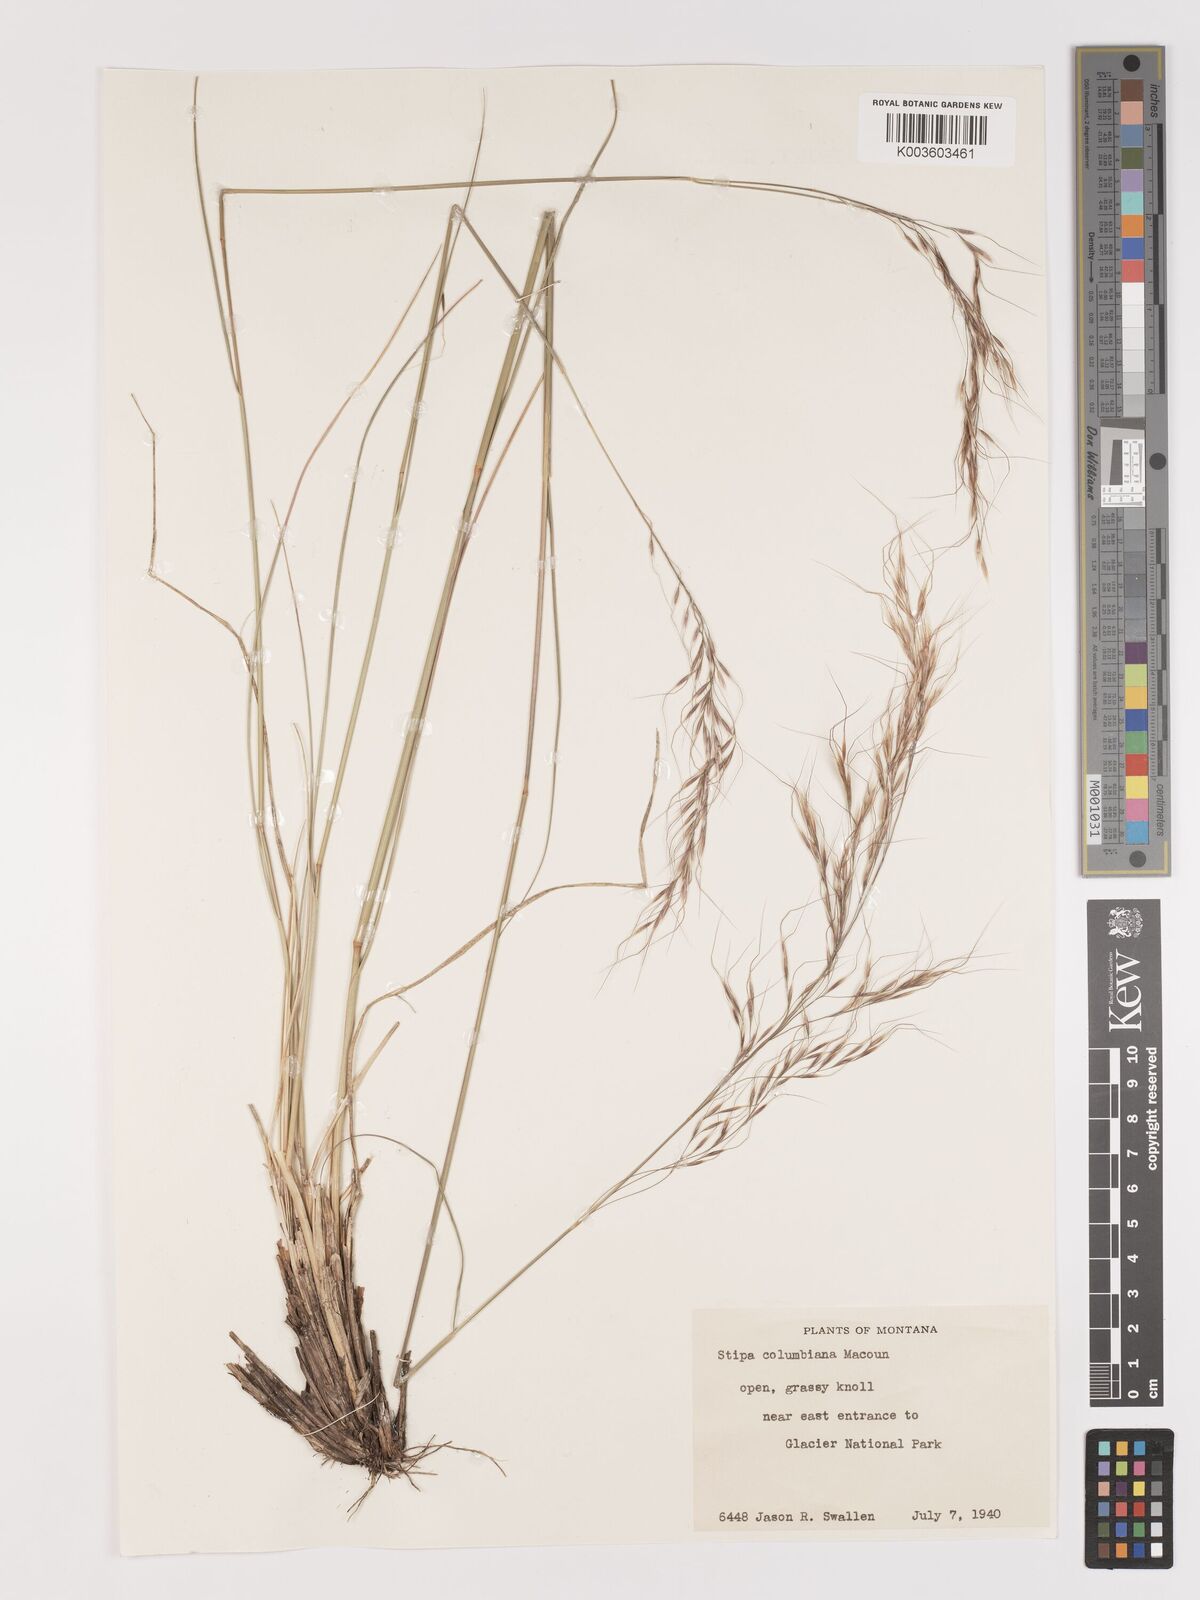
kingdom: Plantae
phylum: Tracheophyta
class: Liliopsida
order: Poales
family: Poaceae
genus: Eriocoma
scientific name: Eriocoma nelsonii
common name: Nelson's needlegrass
